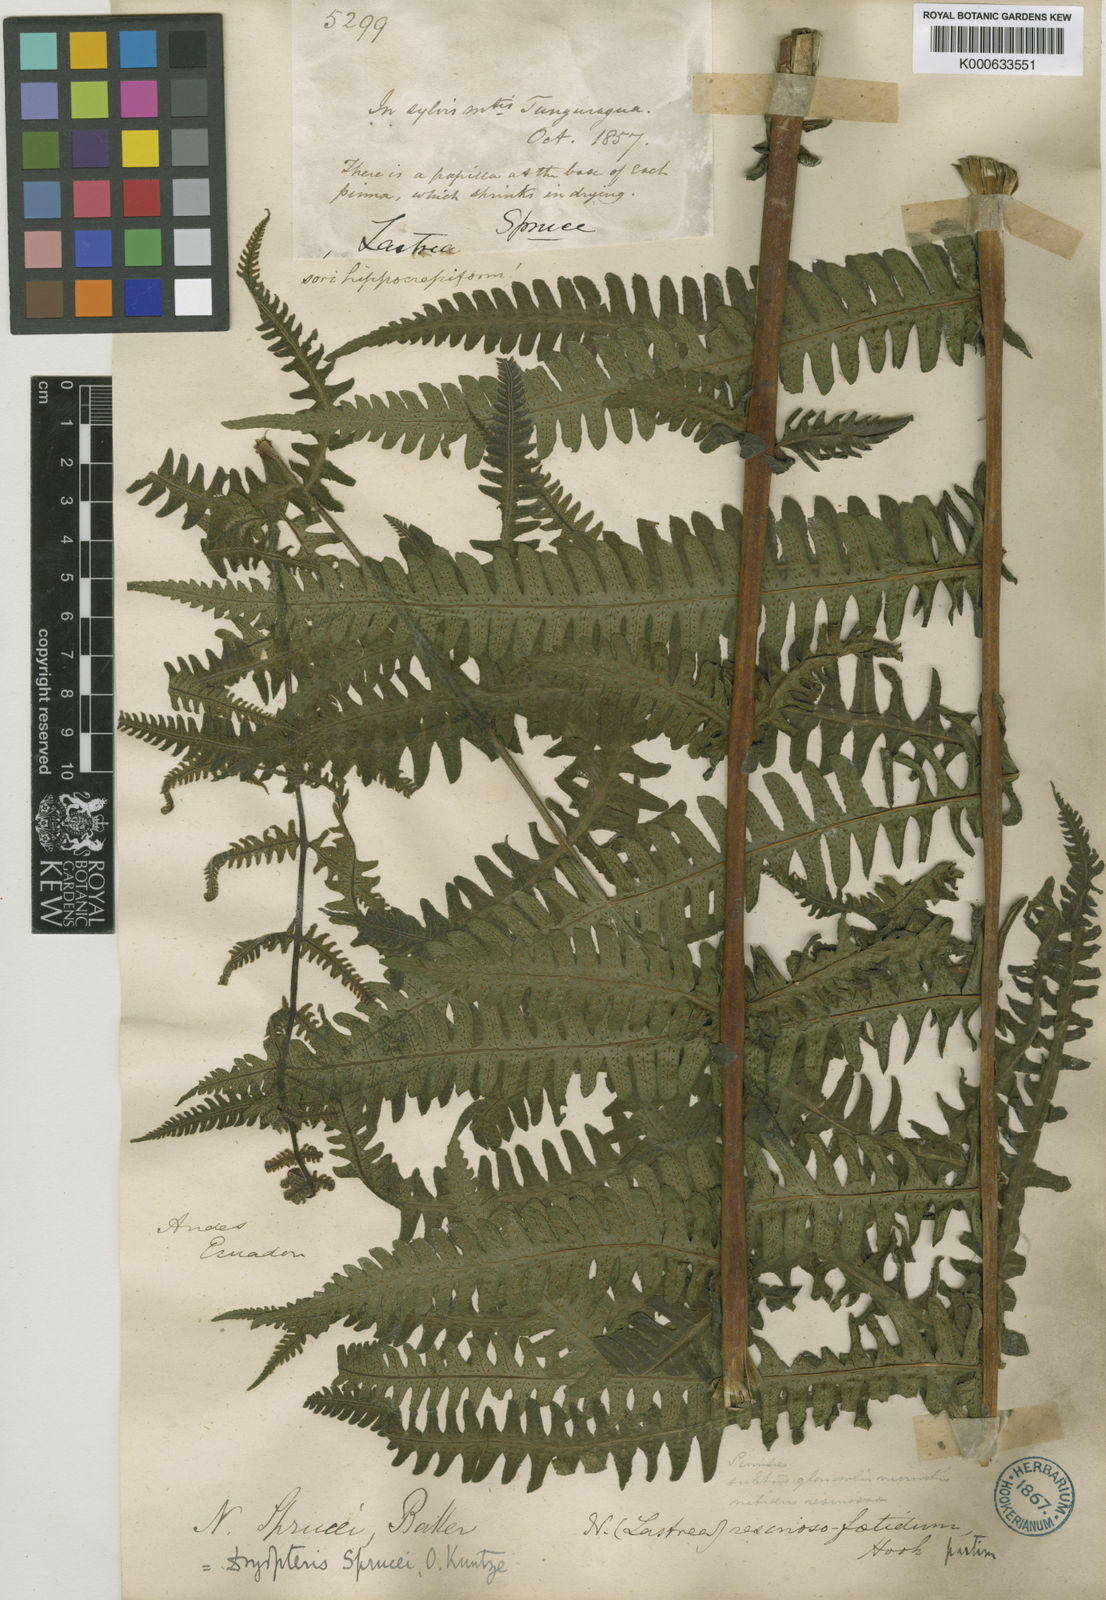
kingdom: Plantae
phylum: Tracheophyta
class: Polypodiopsida
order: Polypodiales
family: Thelypteridaceae
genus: Amauropelta
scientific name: Amauropelta pachyrhachis
